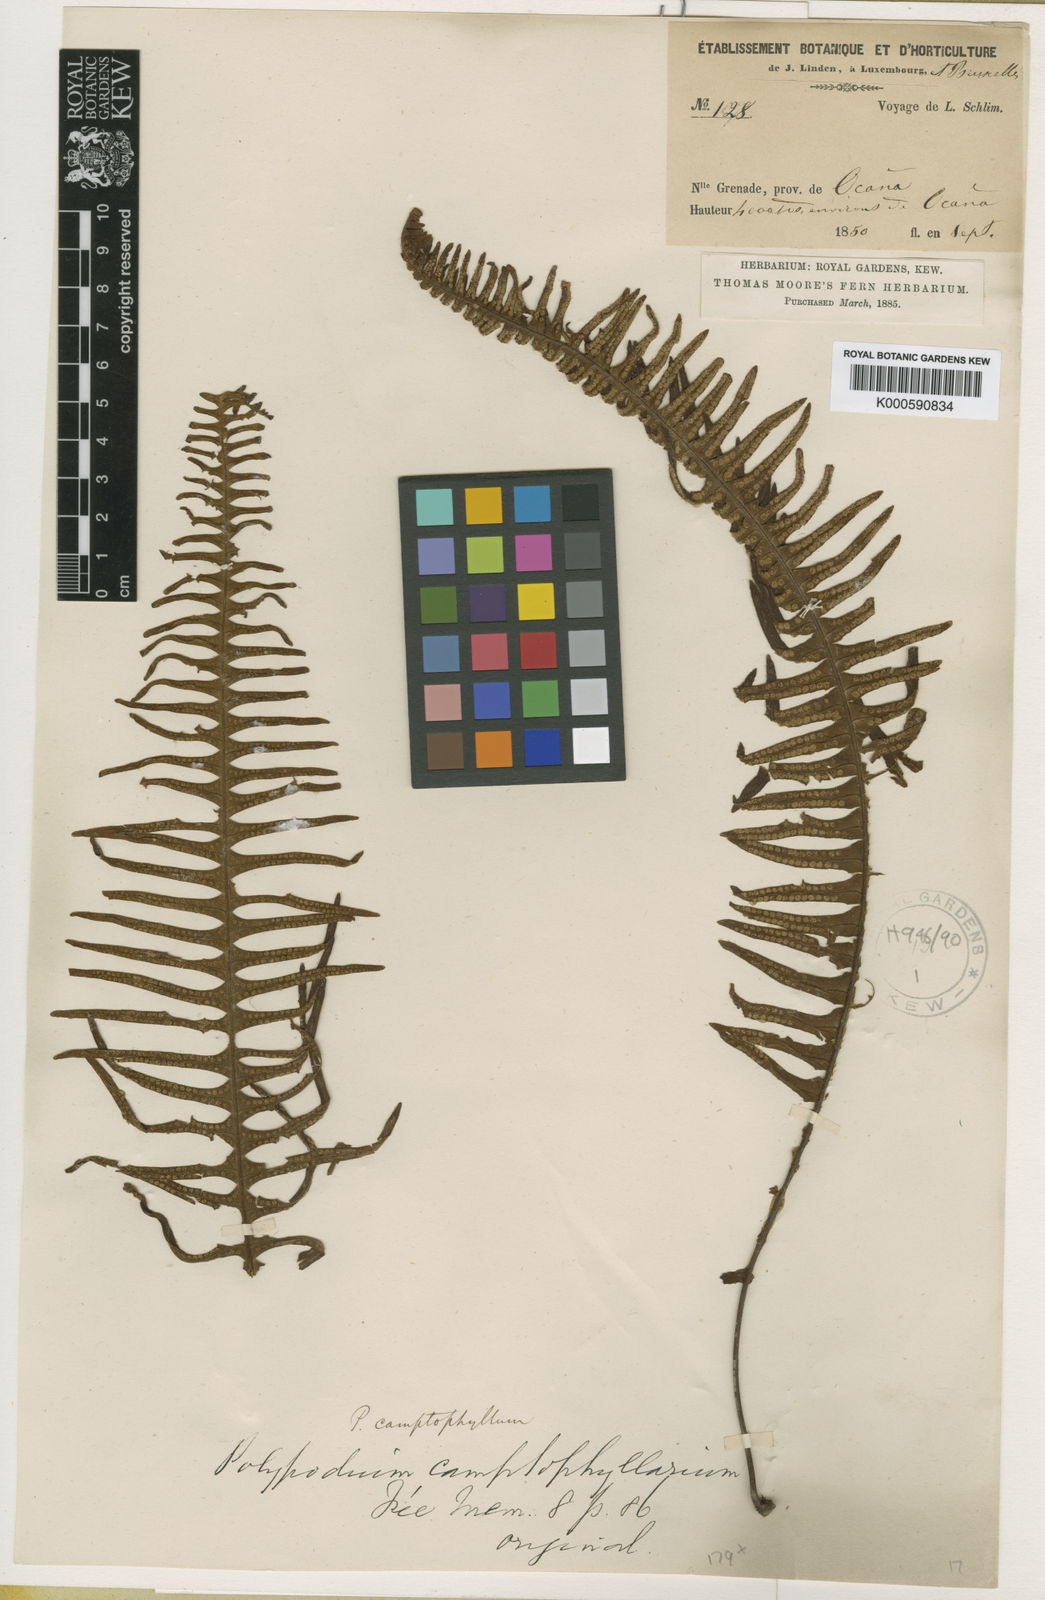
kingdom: Plantae
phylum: Tracheophyta
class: Polypodiopsida
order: Polypodiales
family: Polypodiaceae
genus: Pecluma
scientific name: Pecluma filicula
